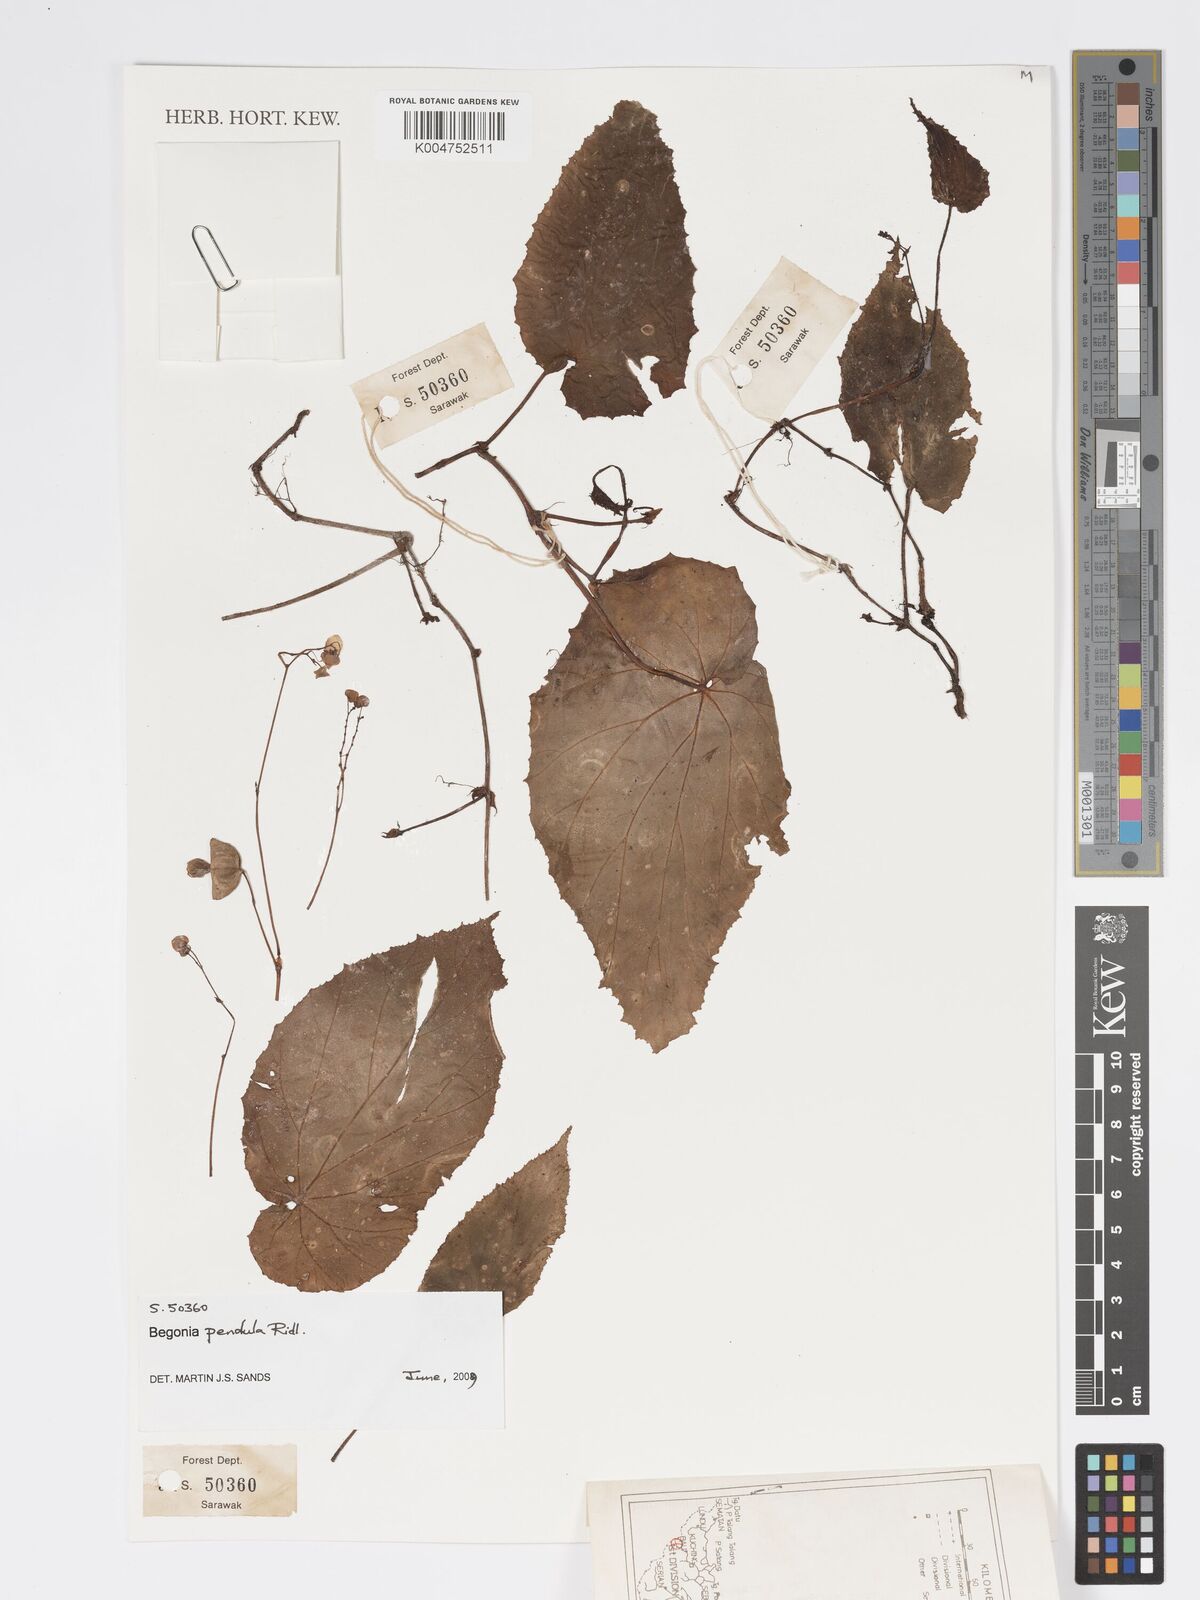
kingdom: Plantae
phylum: Tracheophyta
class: Magnoliopsida
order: Cucurbitales
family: Begoniaceae
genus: Begonia
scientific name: Begonia
